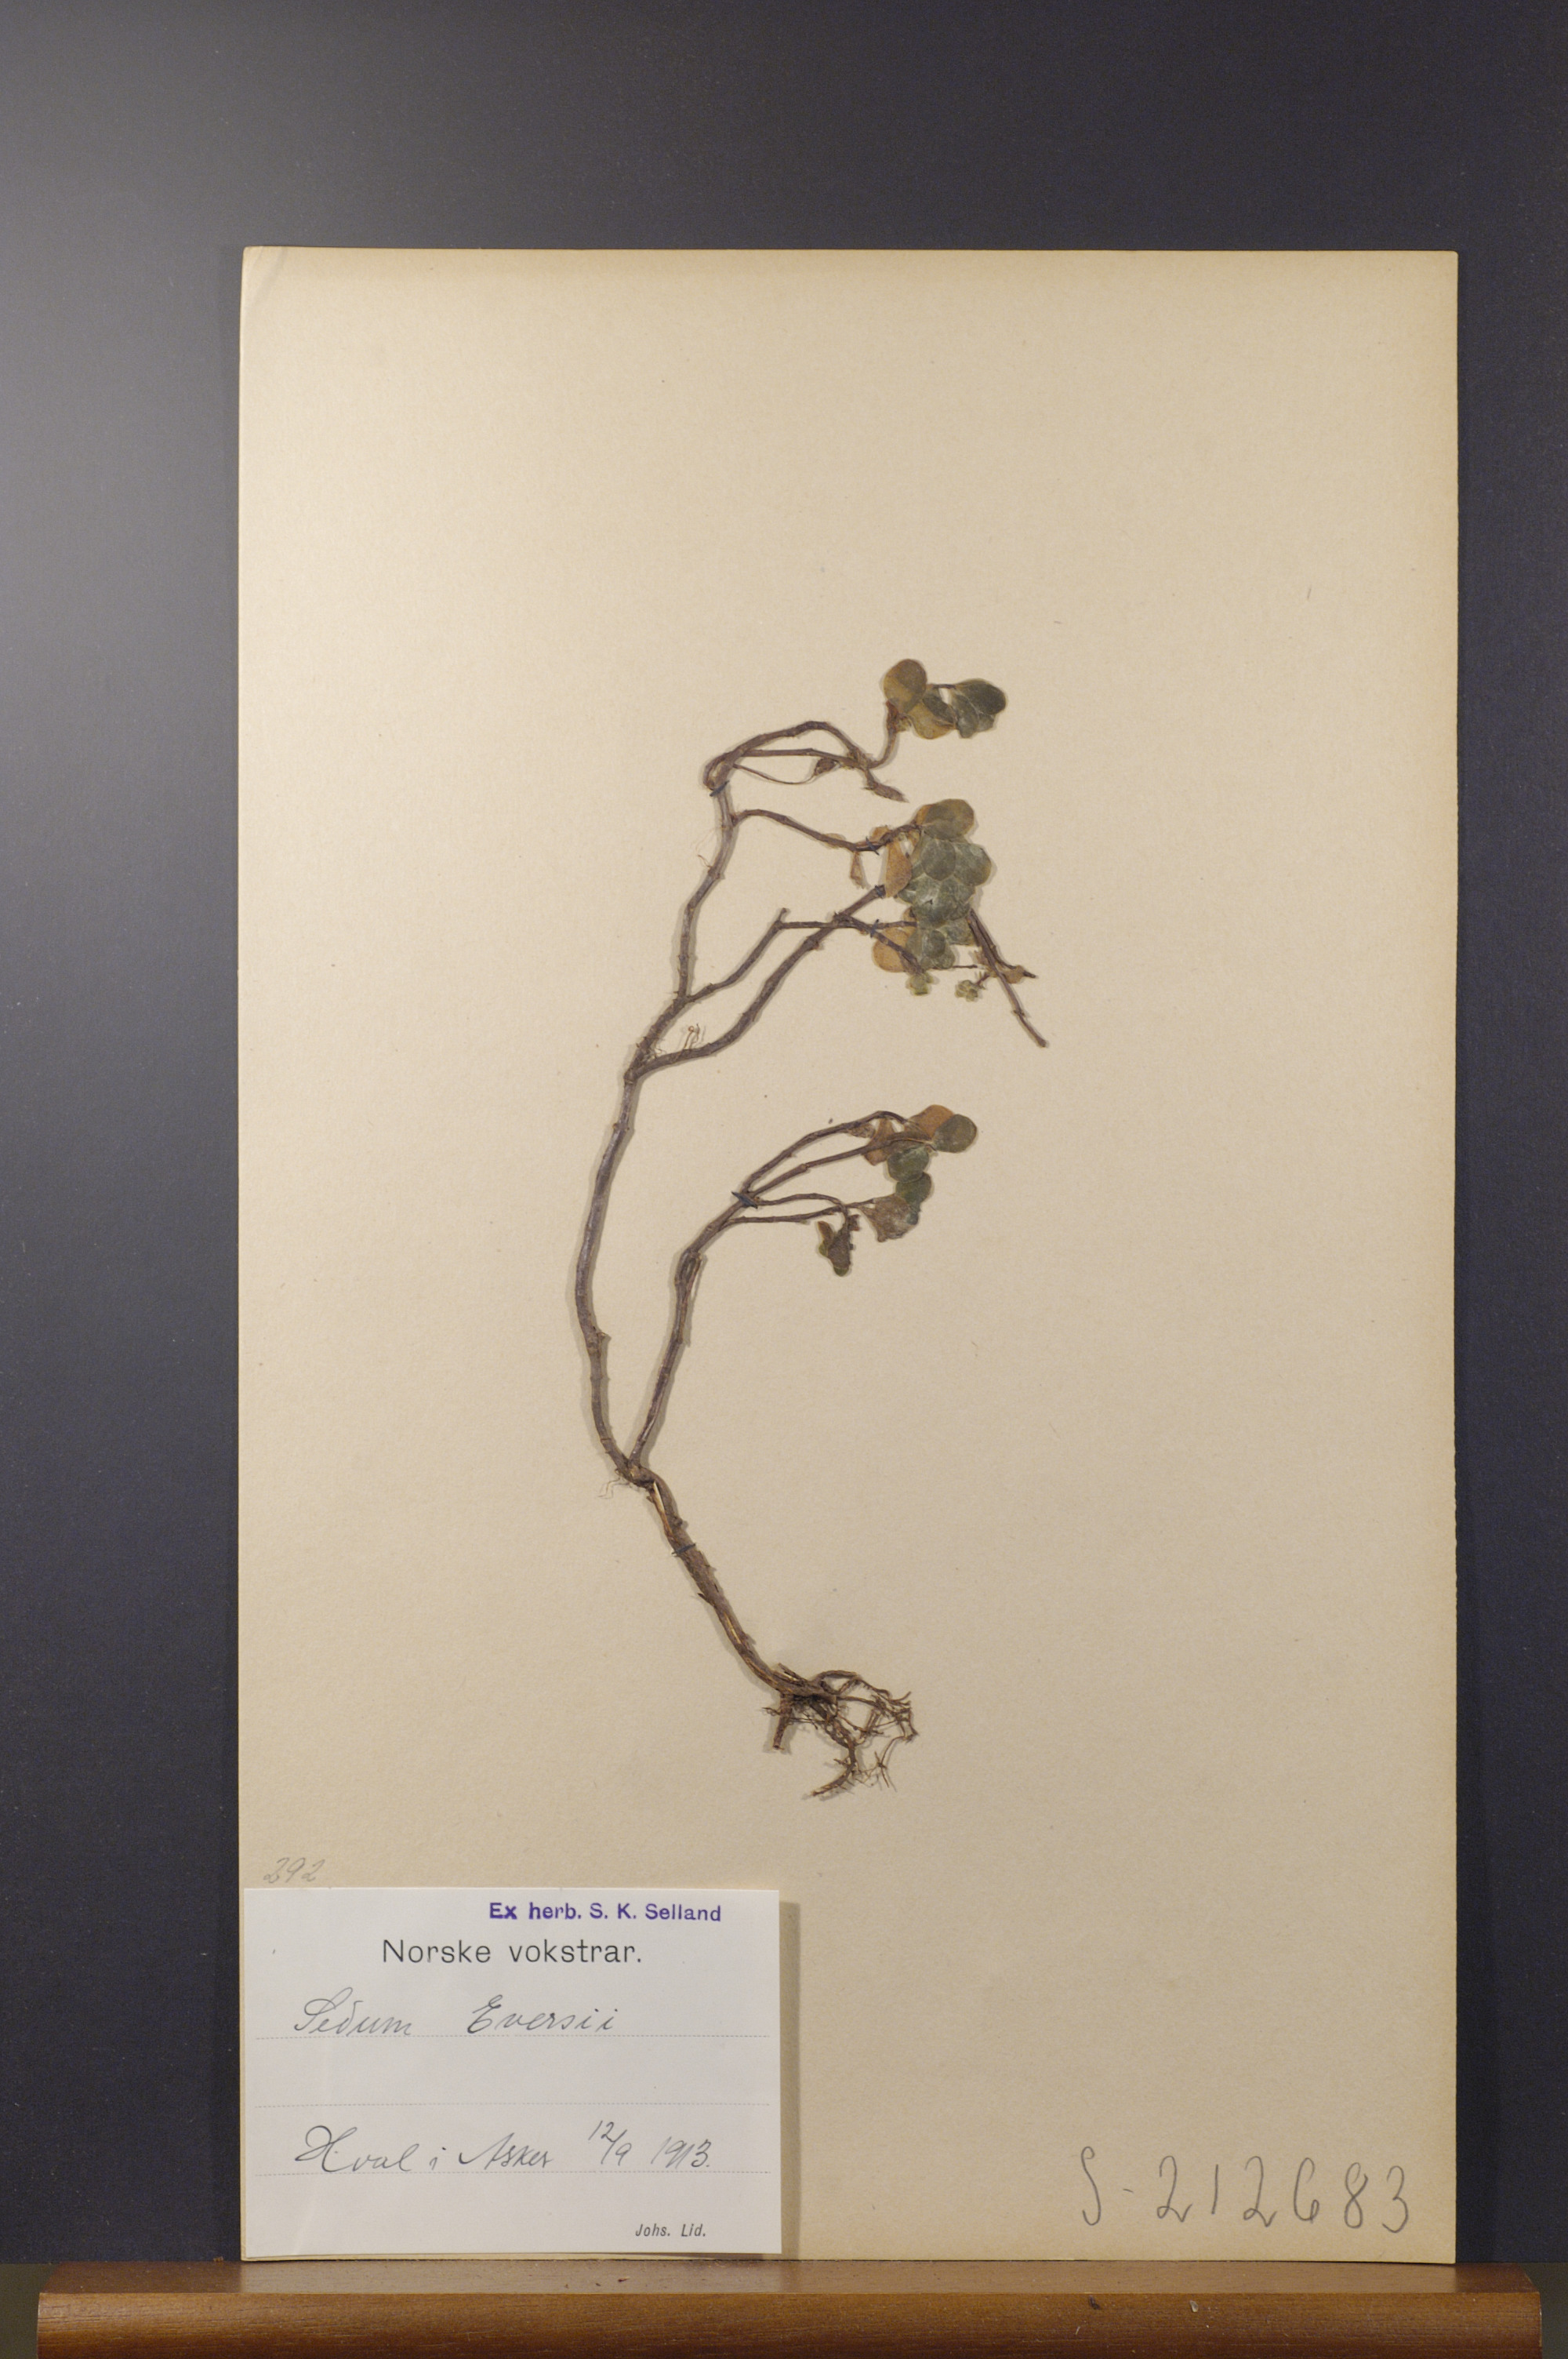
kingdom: Plantae
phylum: Tracheophyta
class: Magnoliopsida
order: Saxifragales
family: Crassulaceae
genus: Hylotelephium
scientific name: Hylotelephium ewersii
